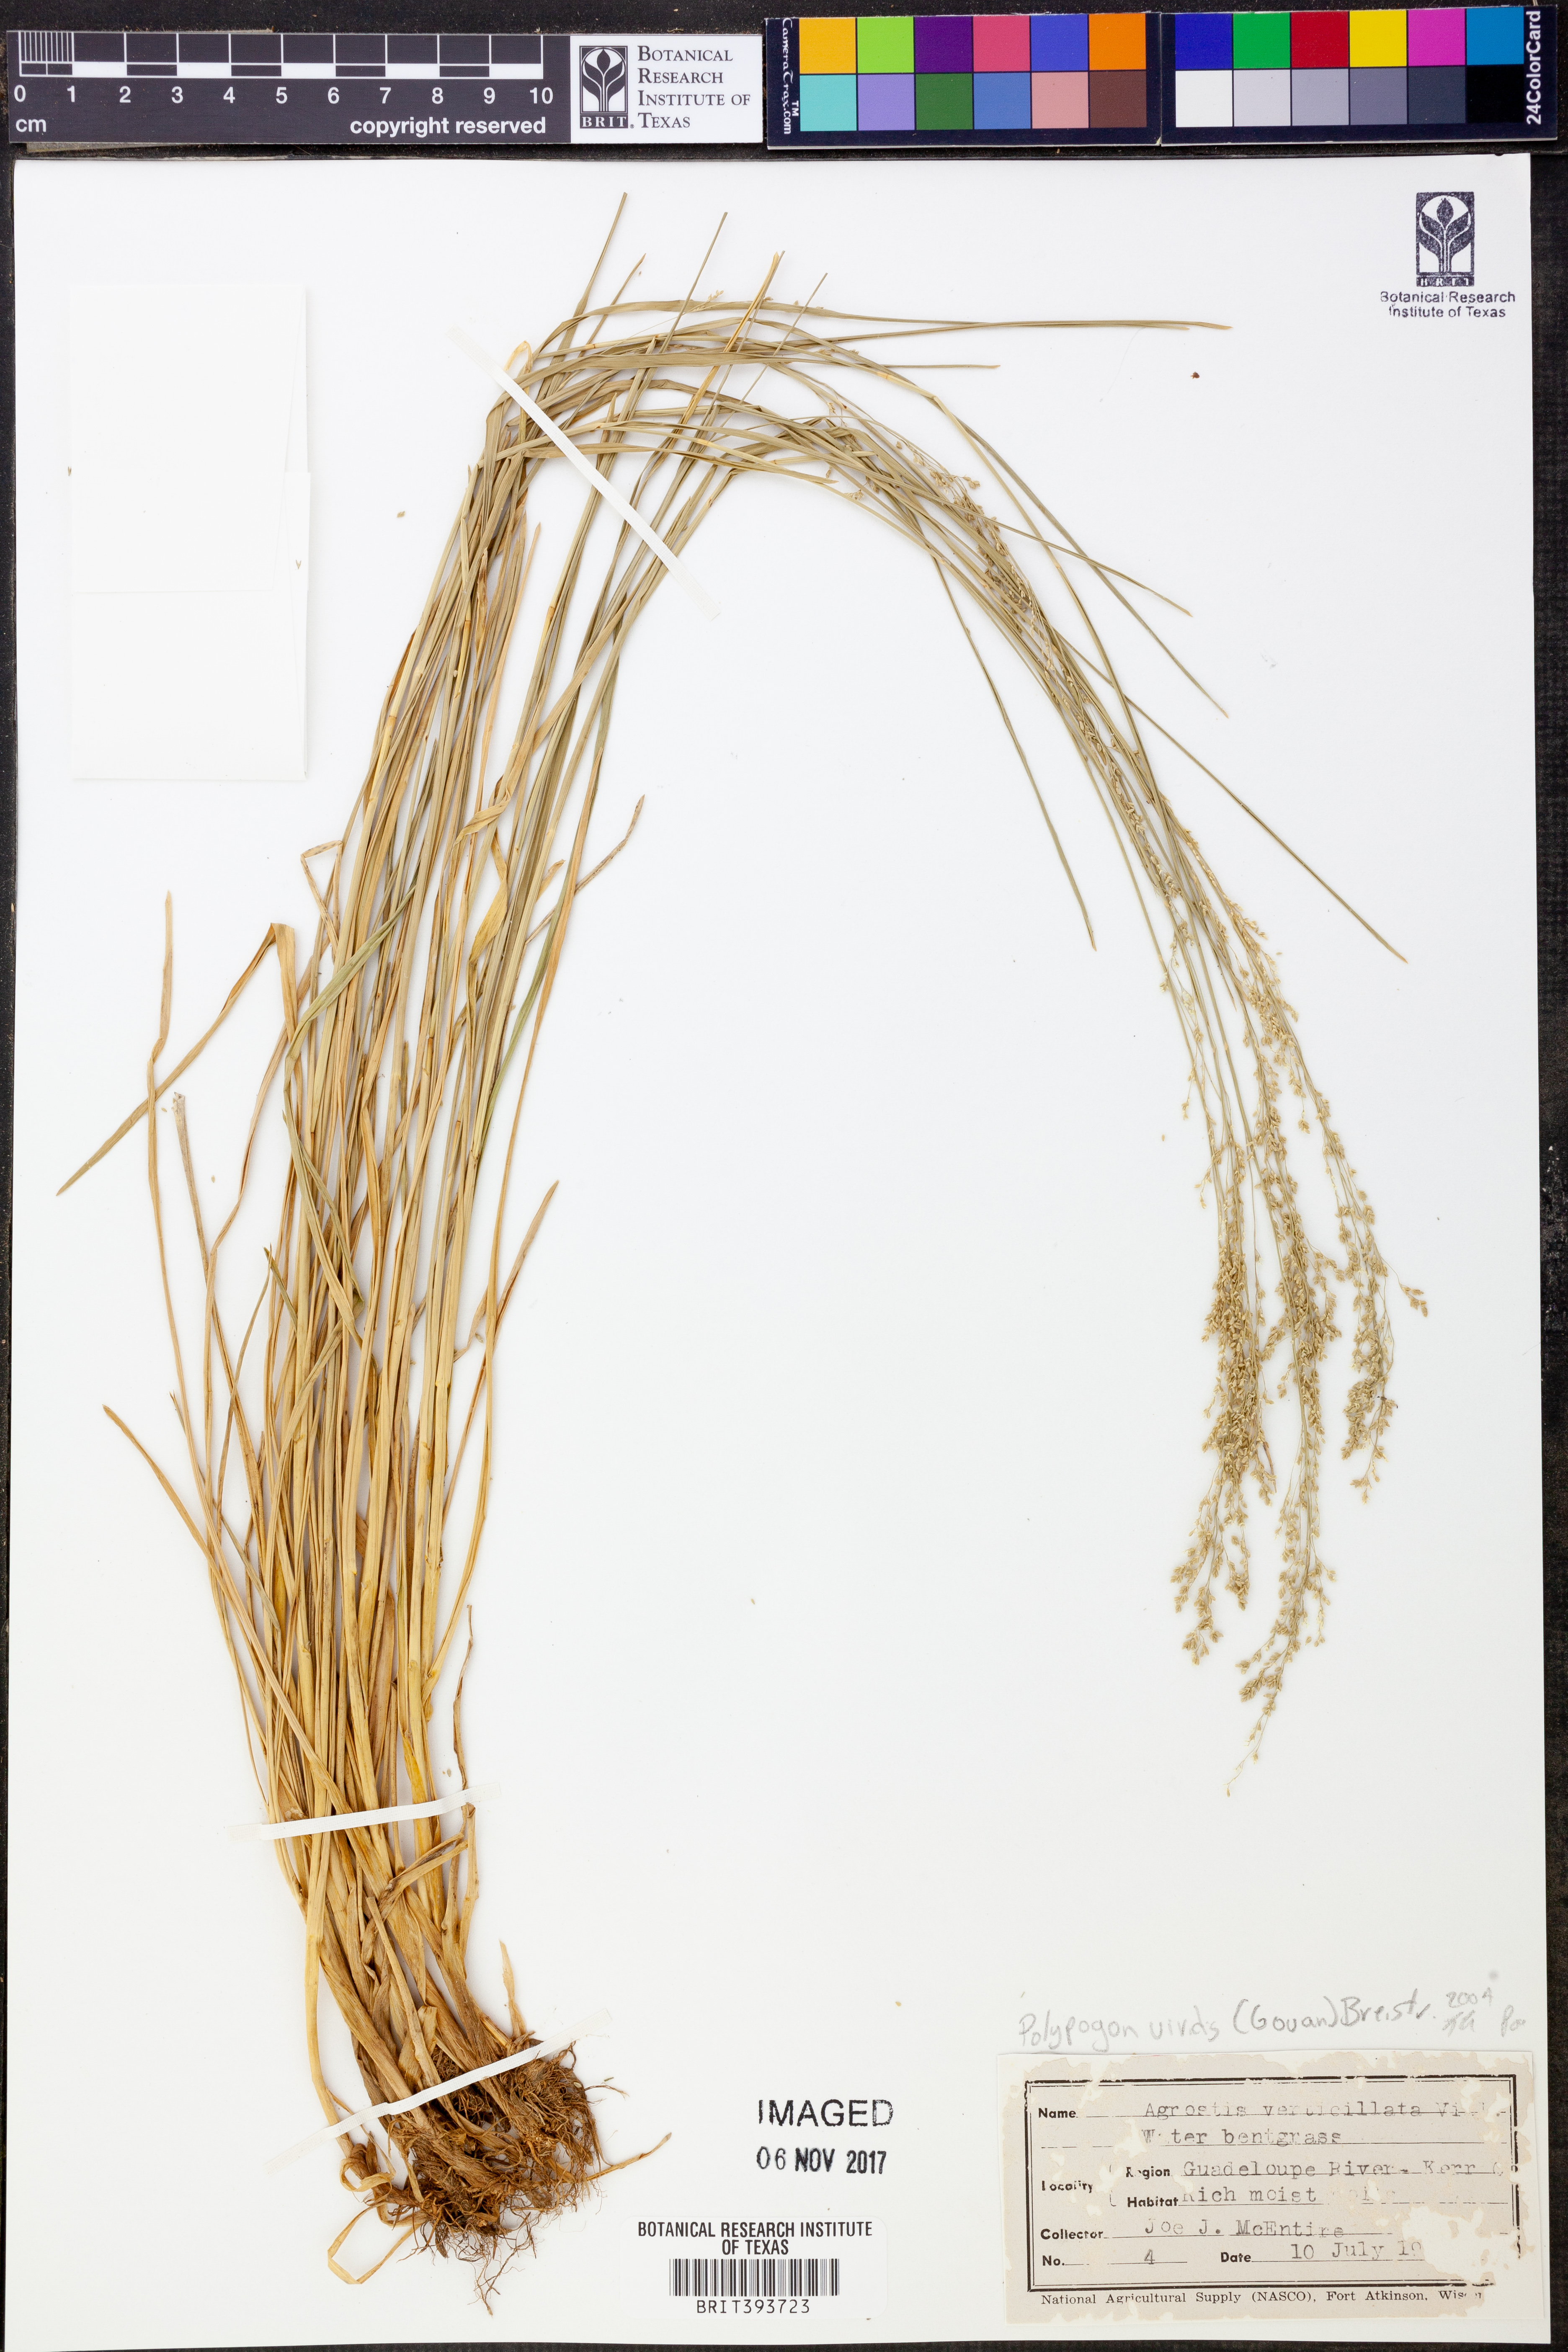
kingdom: Plantae
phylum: Tracheophyta
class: Liliopsida
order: Poales
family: Poaceae
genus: Polypogon
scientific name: Polypogon viridis
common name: Water bent
